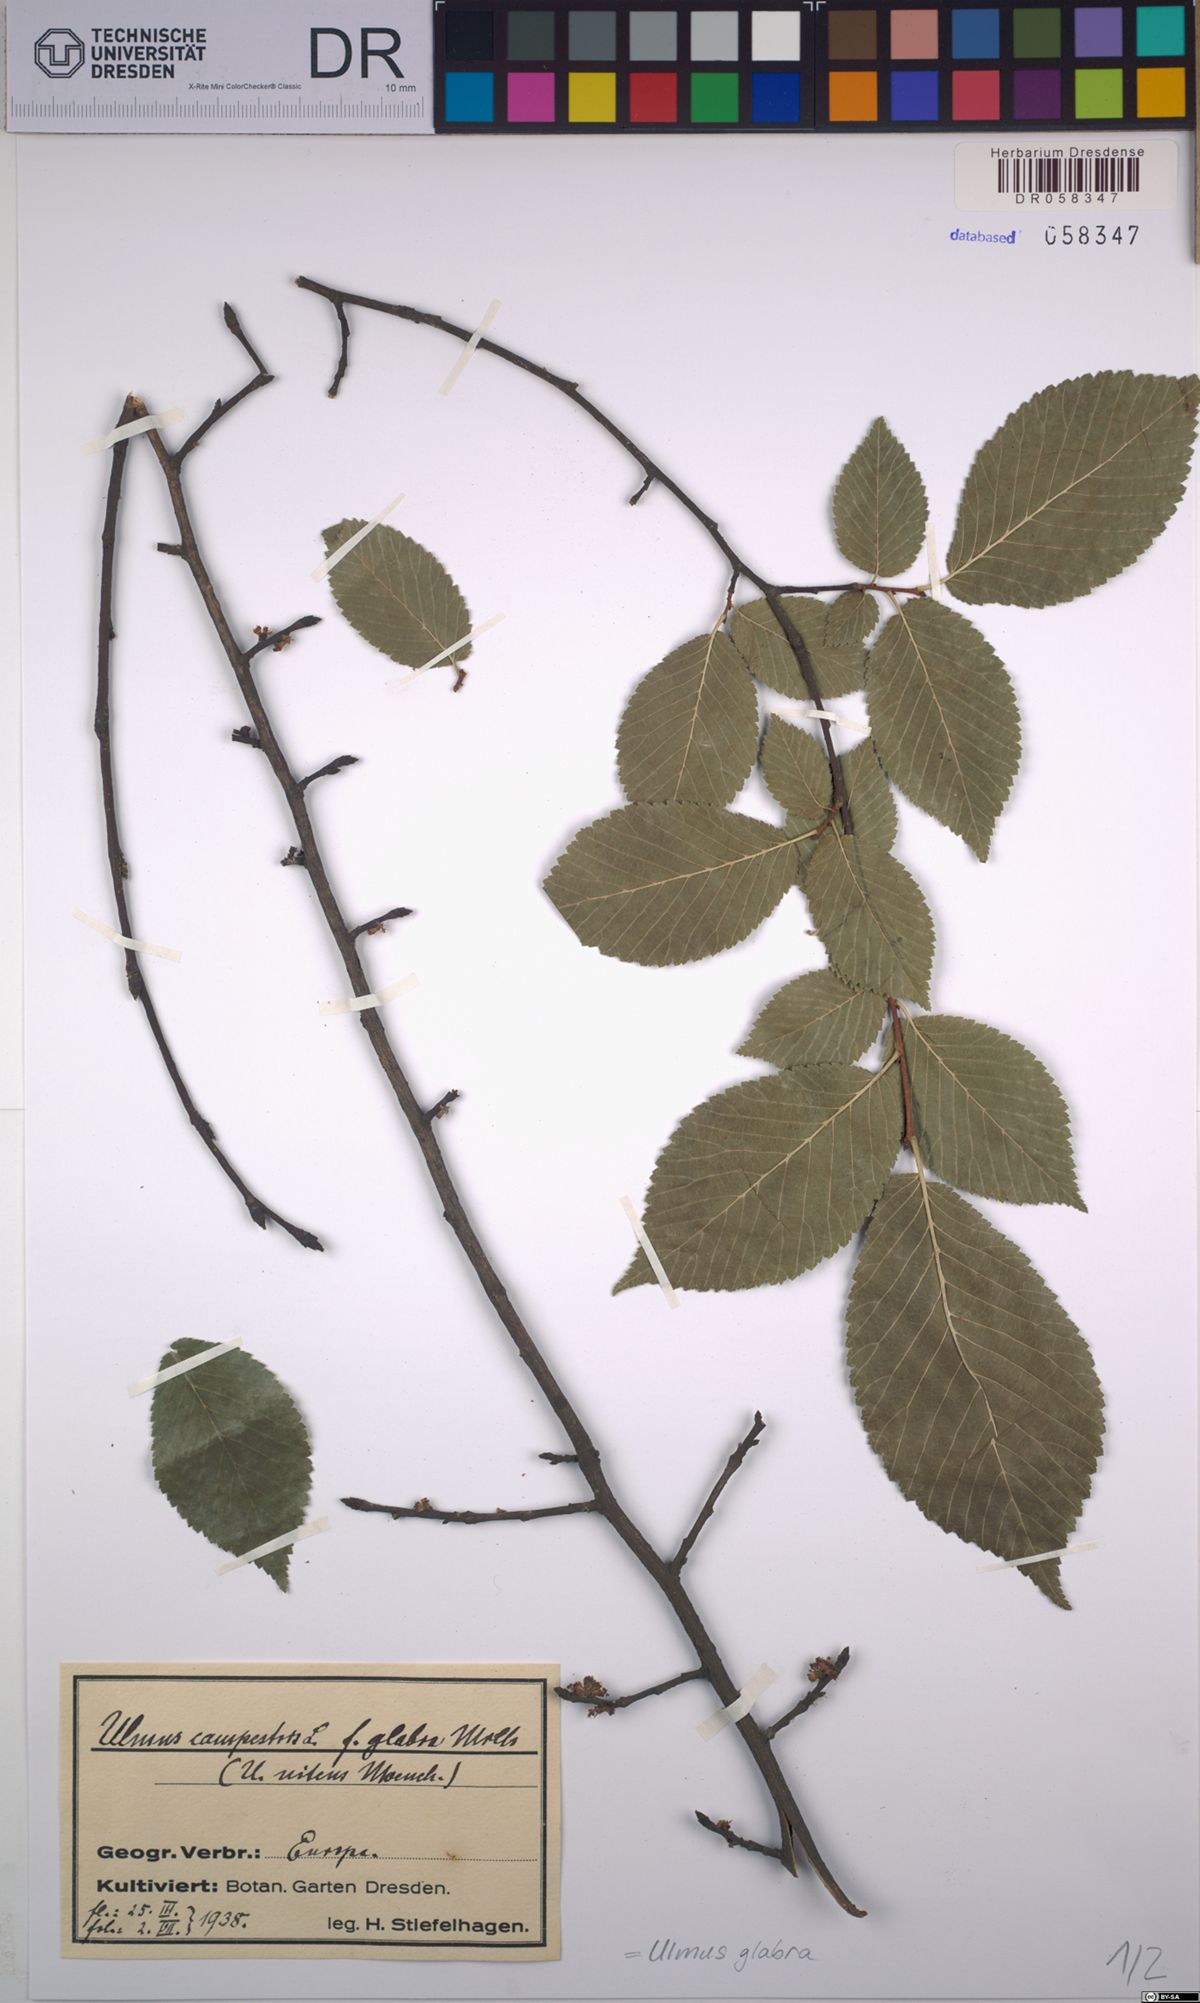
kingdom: Plantae
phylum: Tracheophyta
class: Magnoliopsida
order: Rosales
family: Ulmaceae
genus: Ulmus
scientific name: Ulmus glabra
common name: Wych elm
